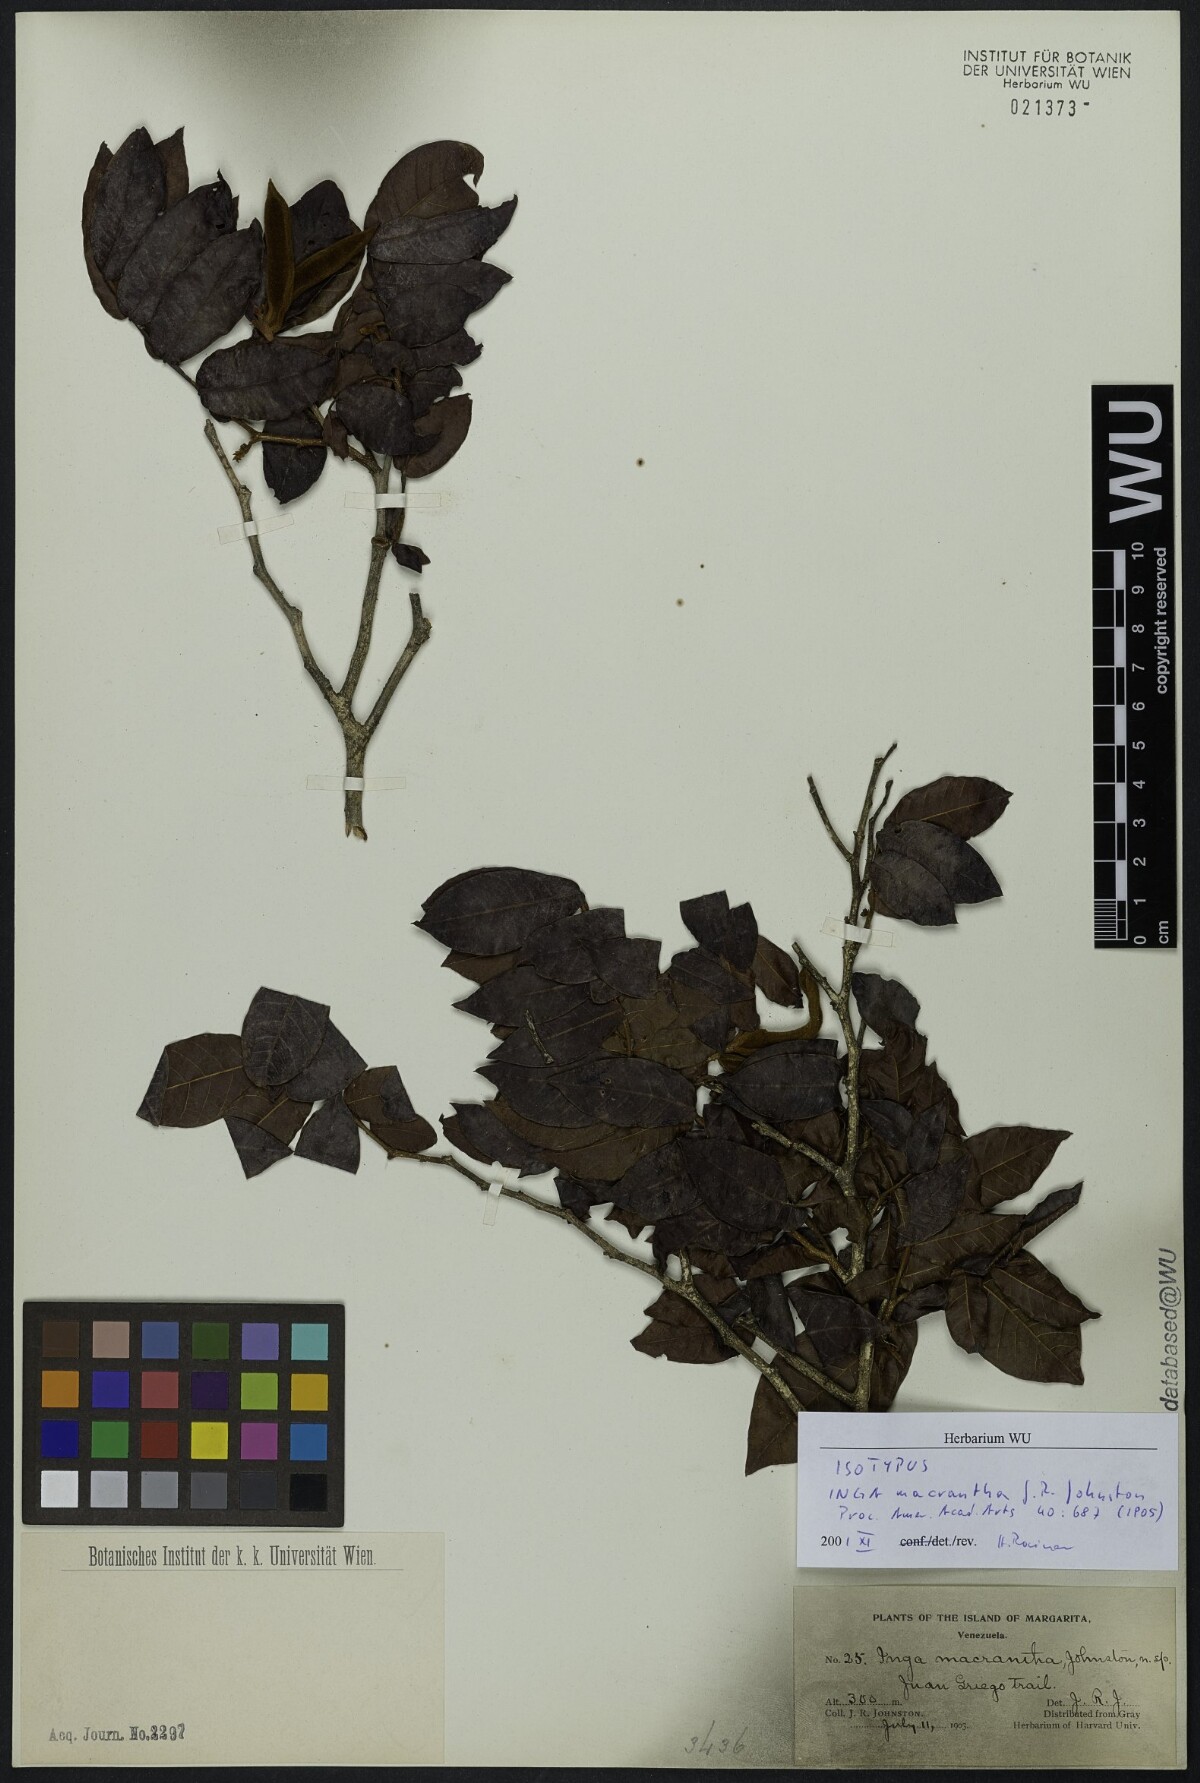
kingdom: Plantae
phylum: Tracheophyta
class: Magnoliopsida
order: Fabales
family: Fabaceae
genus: Inga
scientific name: Inga macrantha
